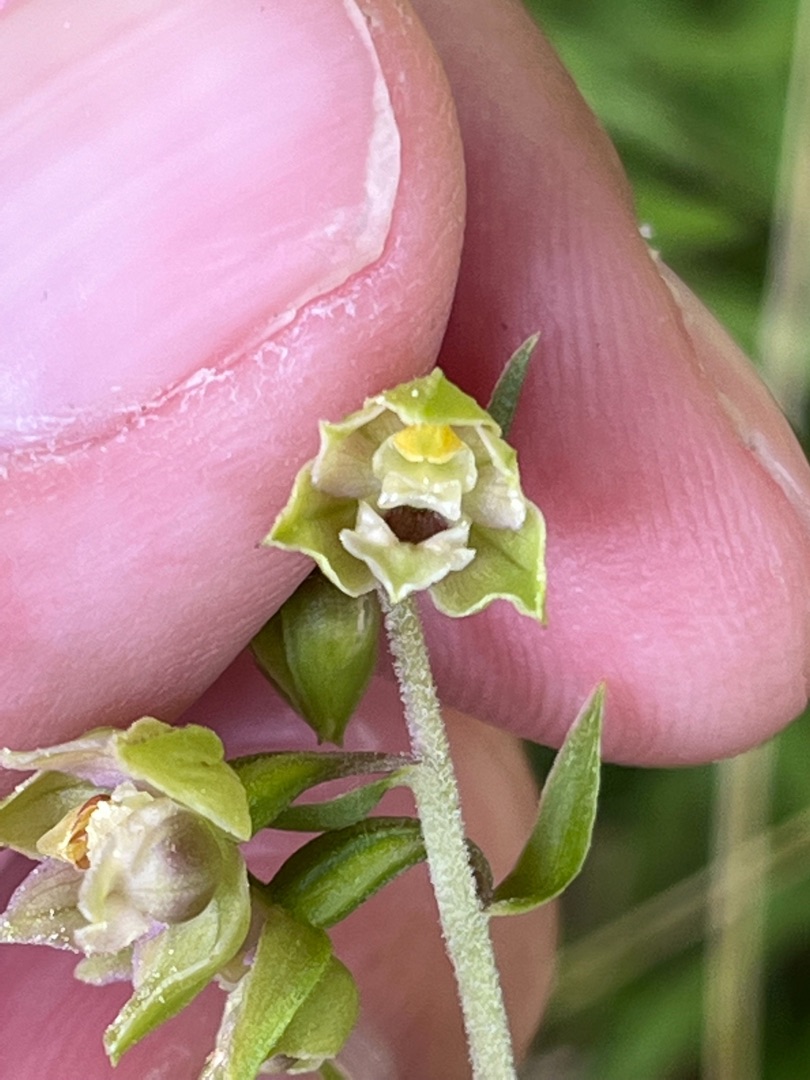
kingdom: Plantae
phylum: Tracheophyta
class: Liliopsida
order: Asparagales
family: Orchidaceae
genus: Epipactis
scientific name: Epipactis helleborine
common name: Skov-hullæbe
